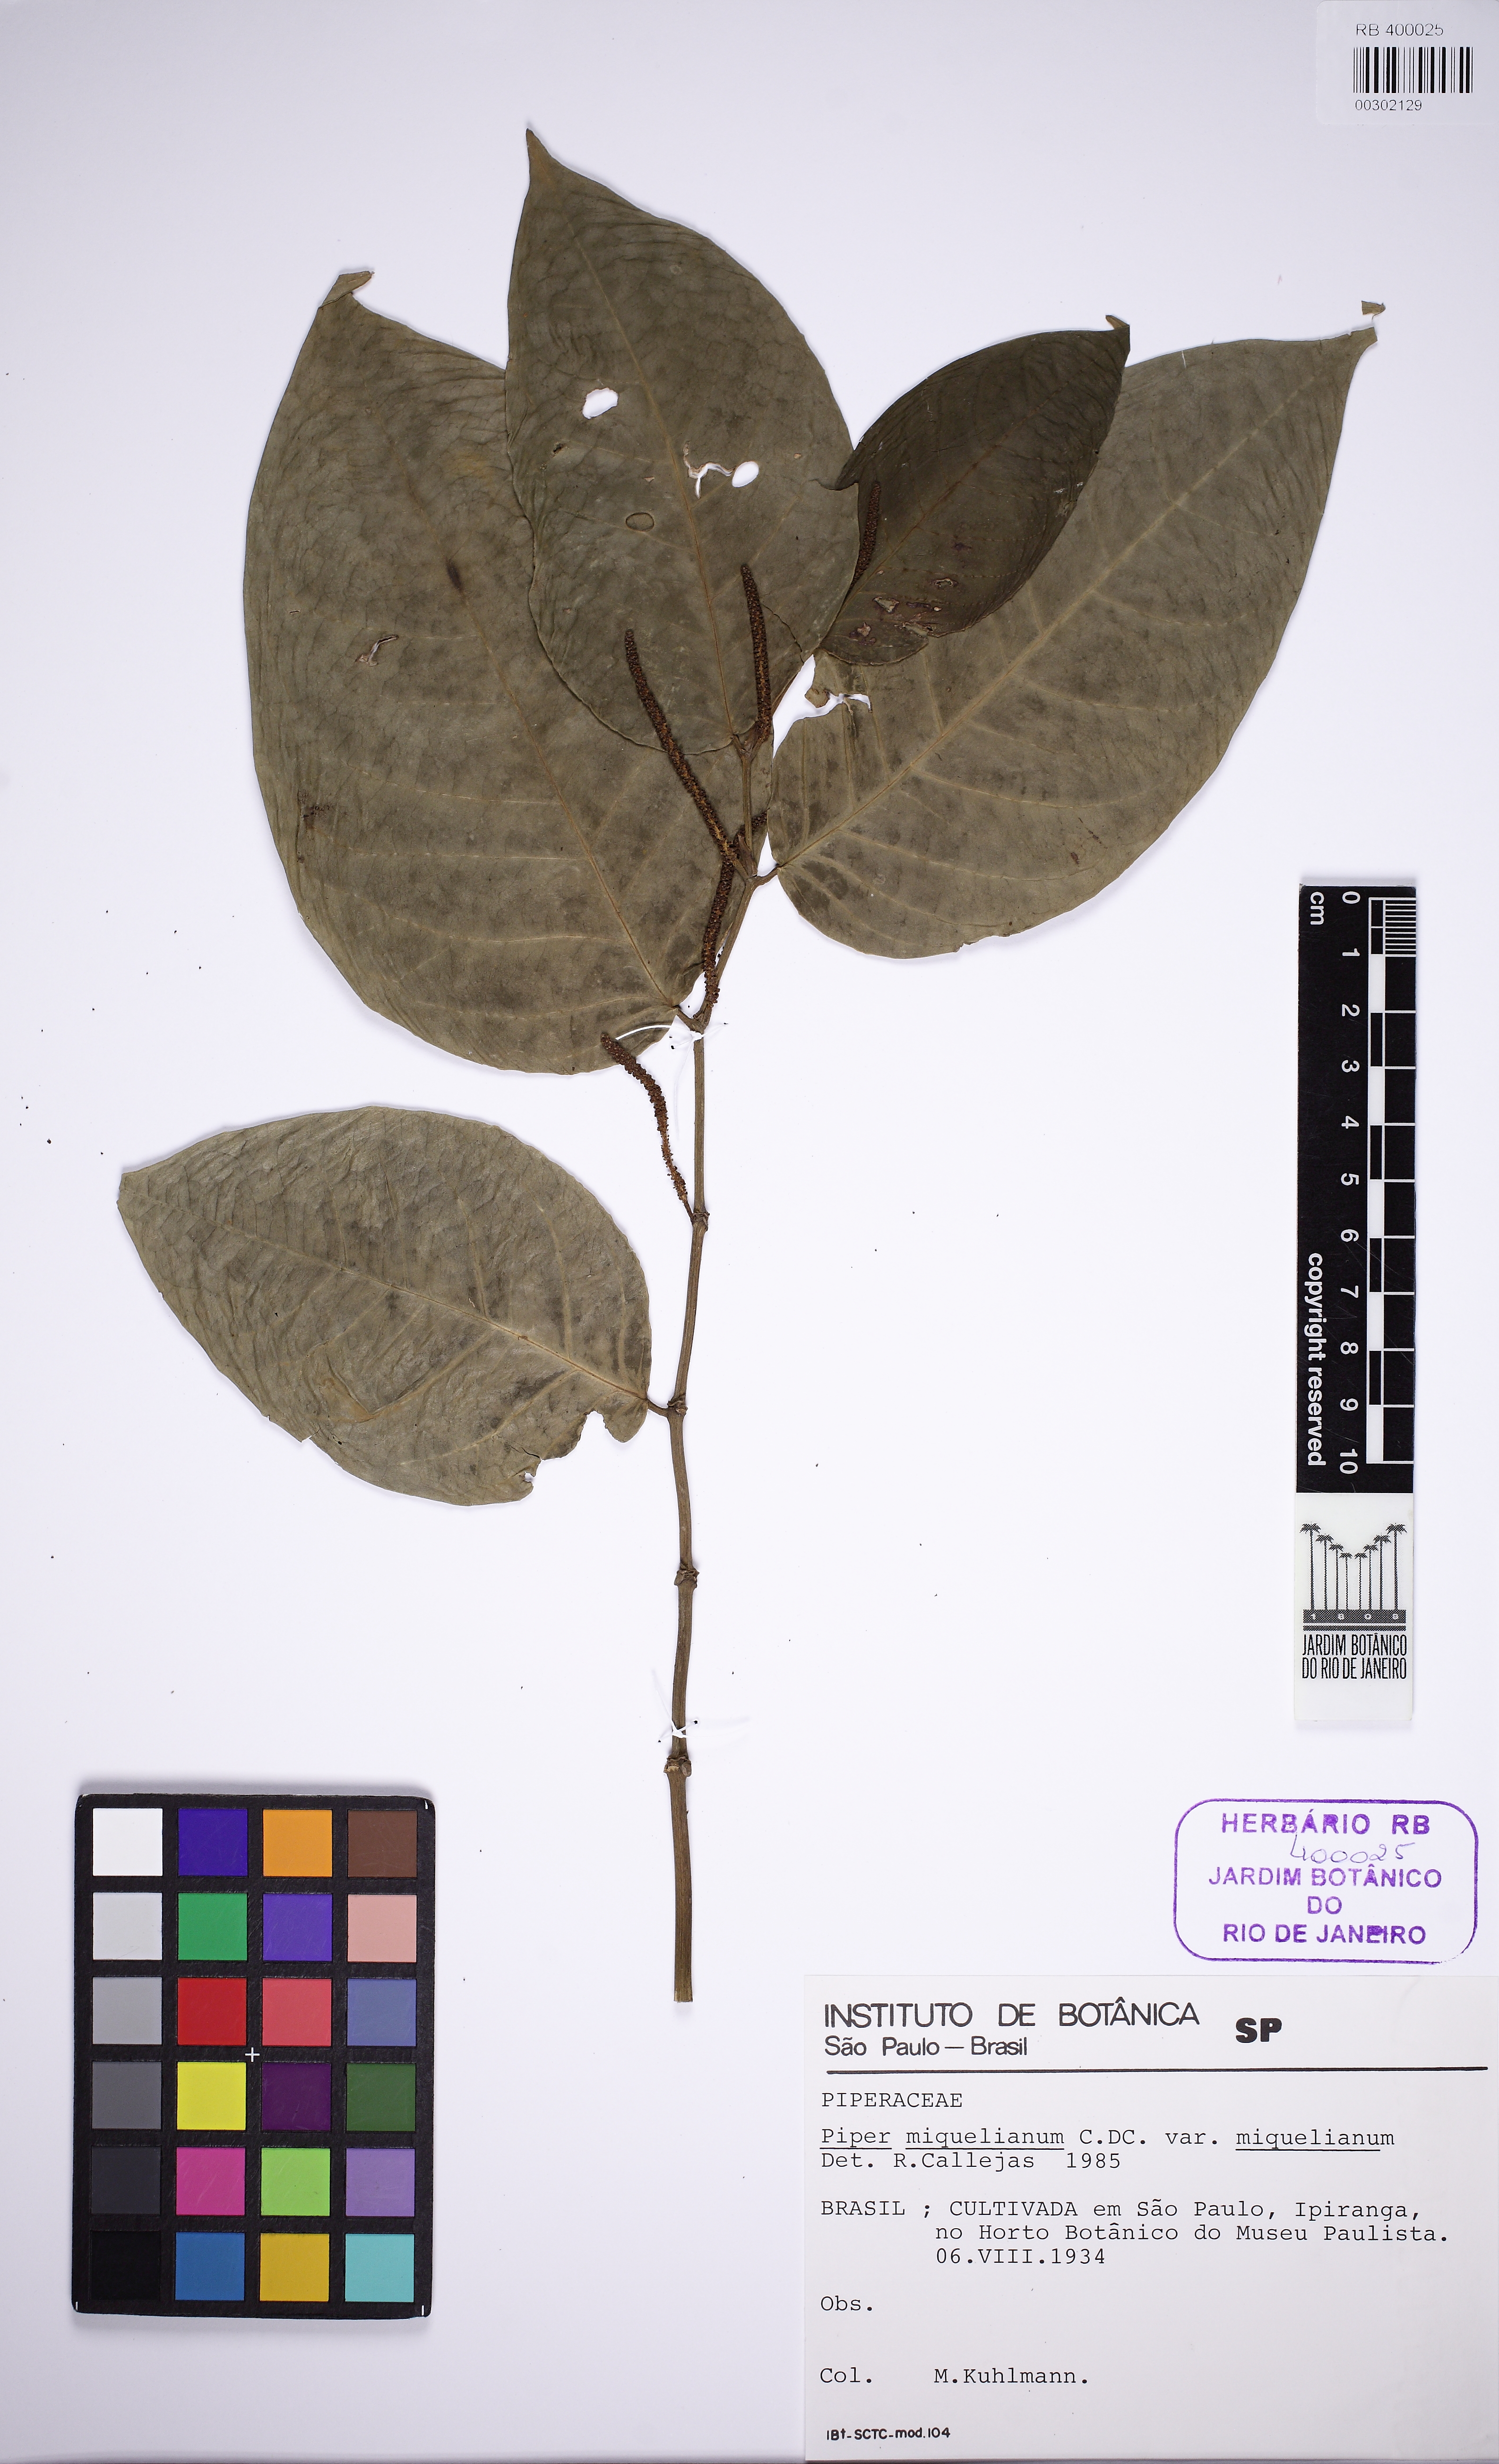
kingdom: Plantae
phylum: Tracheophyta
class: Magnoliopsida
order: Piperales
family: Piperaceae
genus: Piper
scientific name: Piper miquelianum
